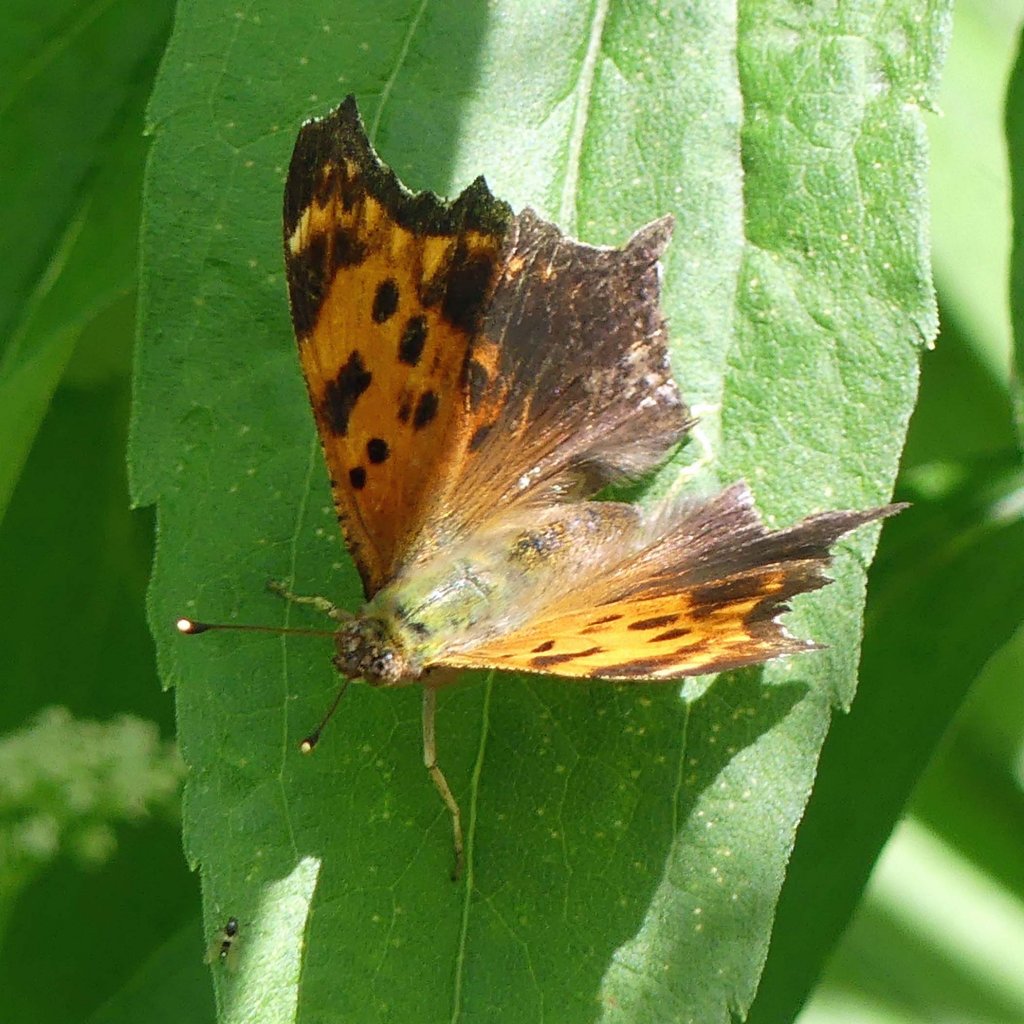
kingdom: Animalia
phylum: Arthropoda
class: Insecta
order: Lepidoptera
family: Nymphalidae
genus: Polygonia
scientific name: Polygonia comma
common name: Eastern Comma
